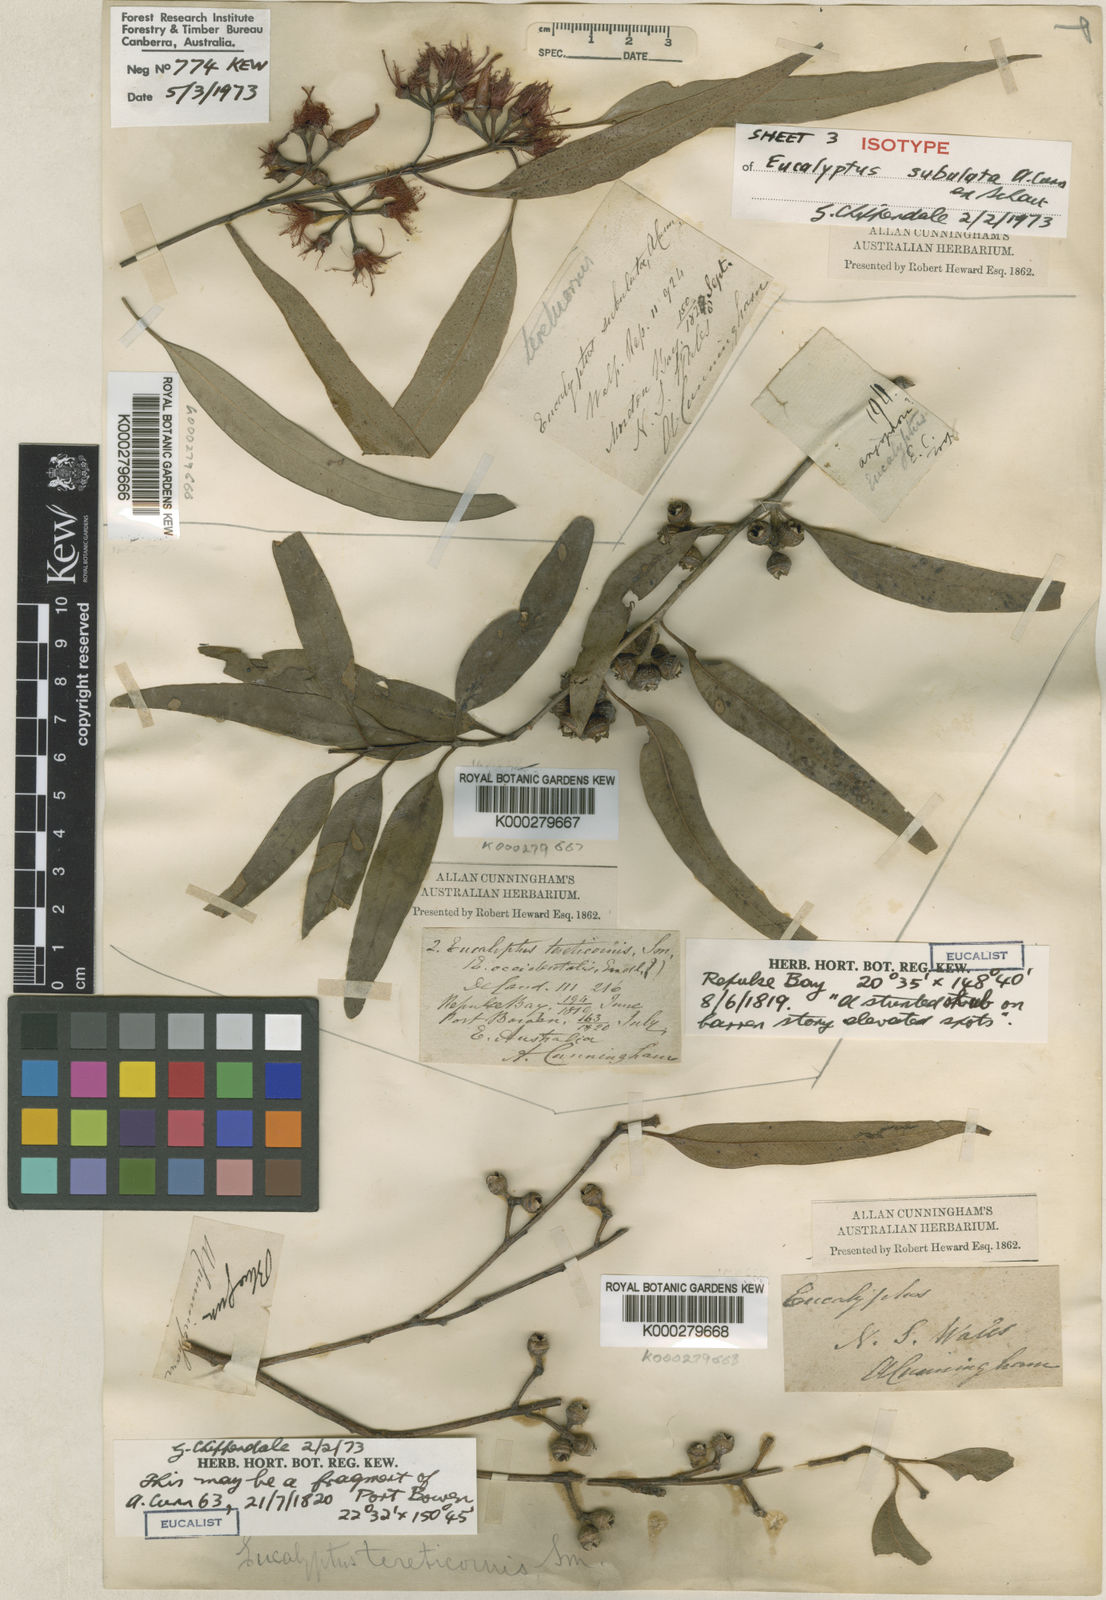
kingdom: Plantae
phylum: Tracheophyta
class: Magnoliopsida
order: Myrtales
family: Myrtaceae
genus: Eucalyptus
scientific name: Eucalyptus tereticornis
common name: Forest redgum
